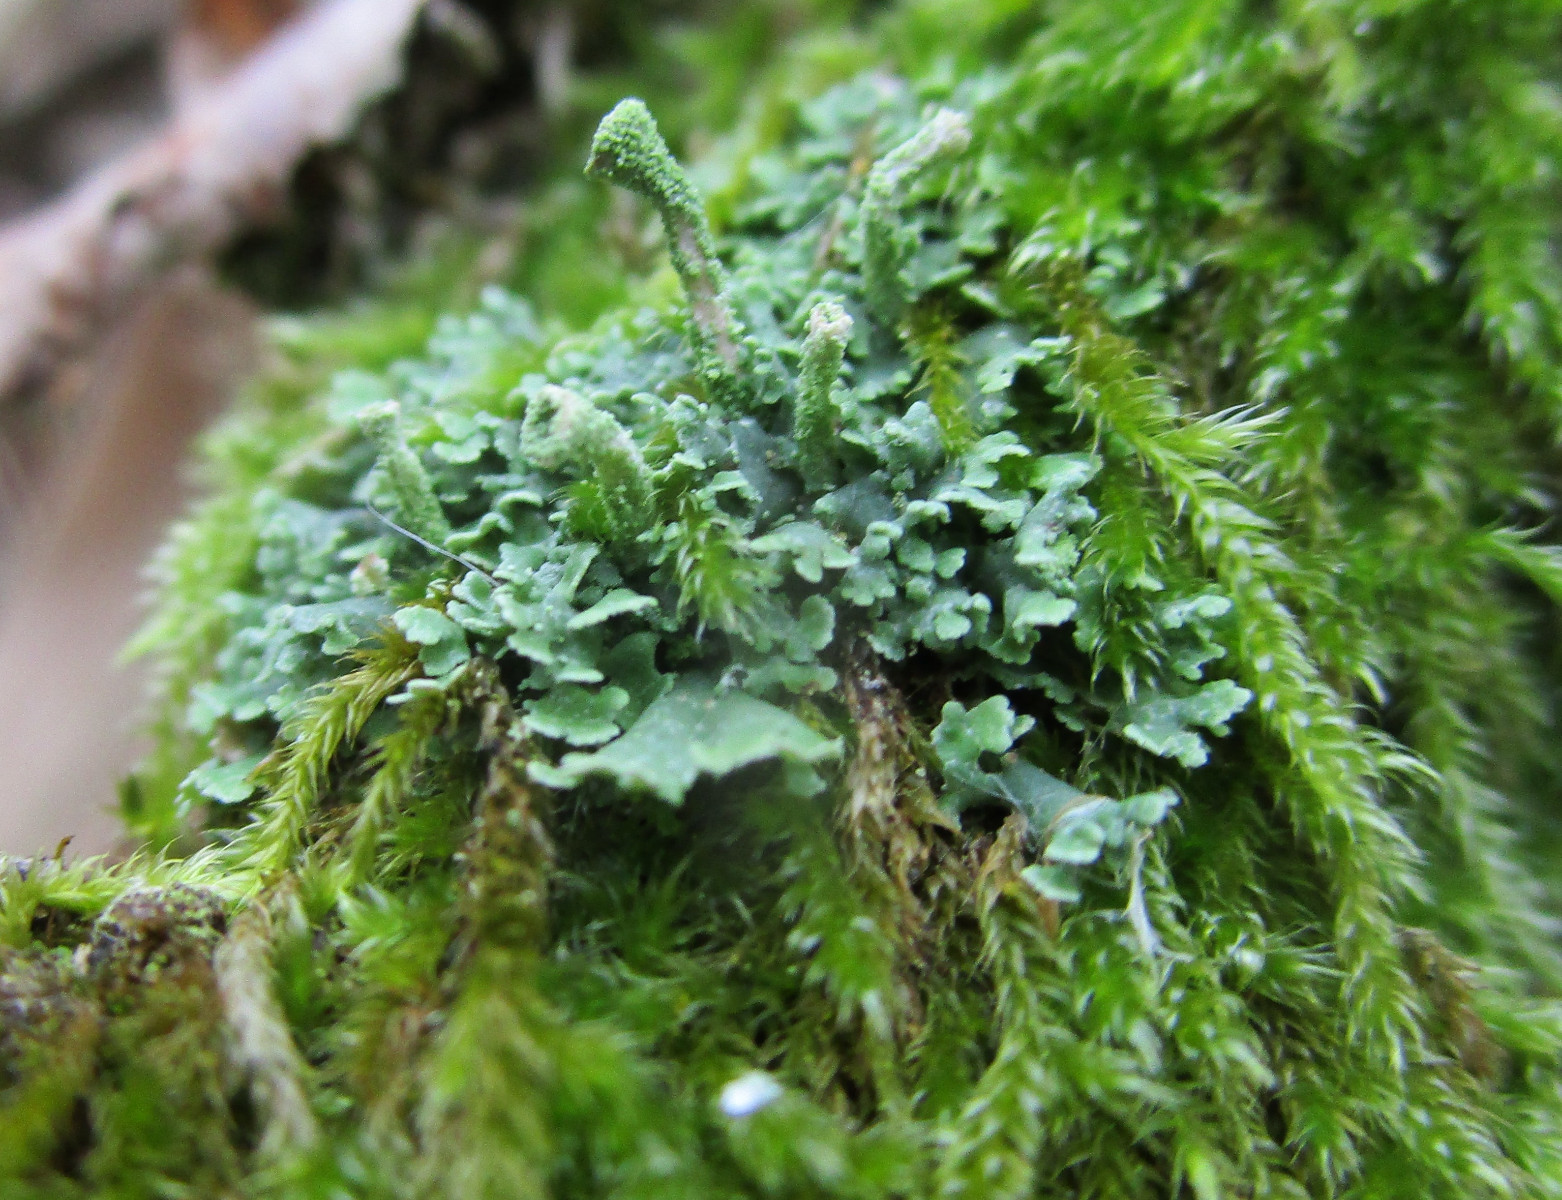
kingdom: Fungi
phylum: Ascomycota
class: Lecanoromycetes
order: Lecanorales
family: Cladoniaceae
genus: Cladonia
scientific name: Cladonia chlorophaea
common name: Mealy pixie cup
